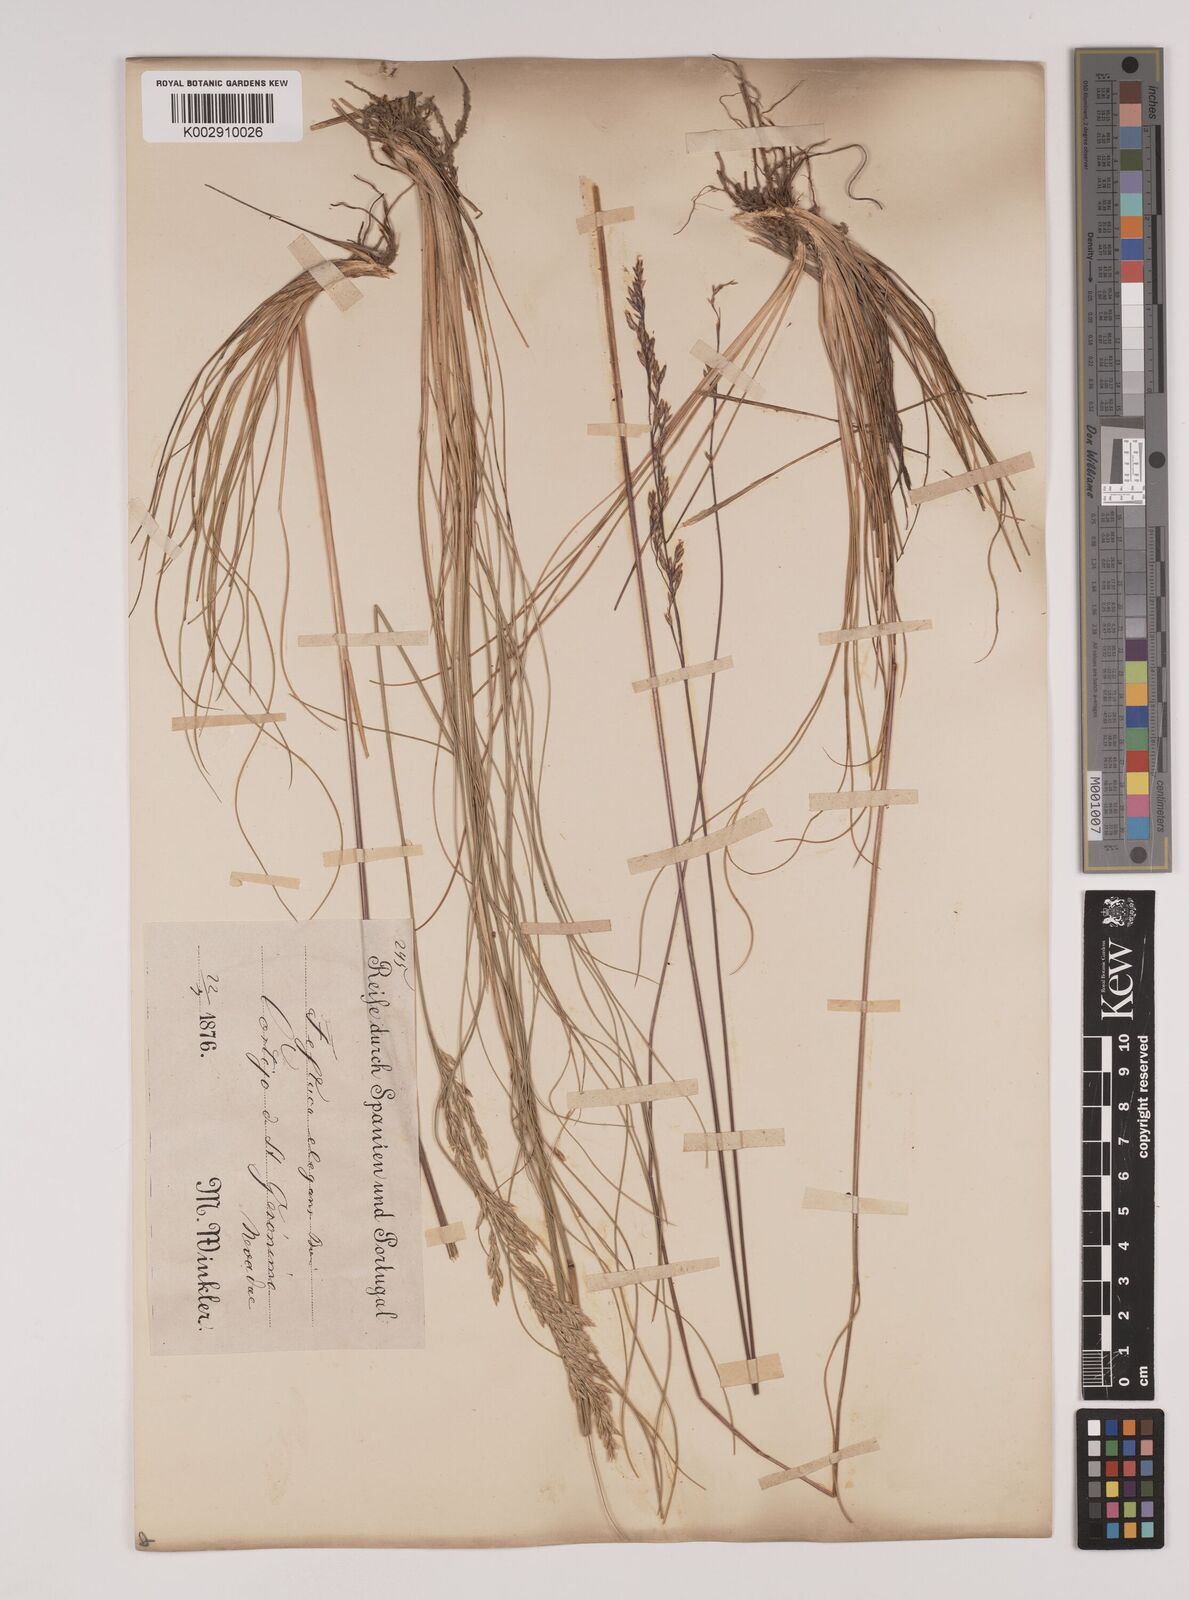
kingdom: Plantae
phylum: Tracheophyta
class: Liliopsida
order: Poales
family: Poaceae
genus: Festuca
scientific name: Festuca elegans
